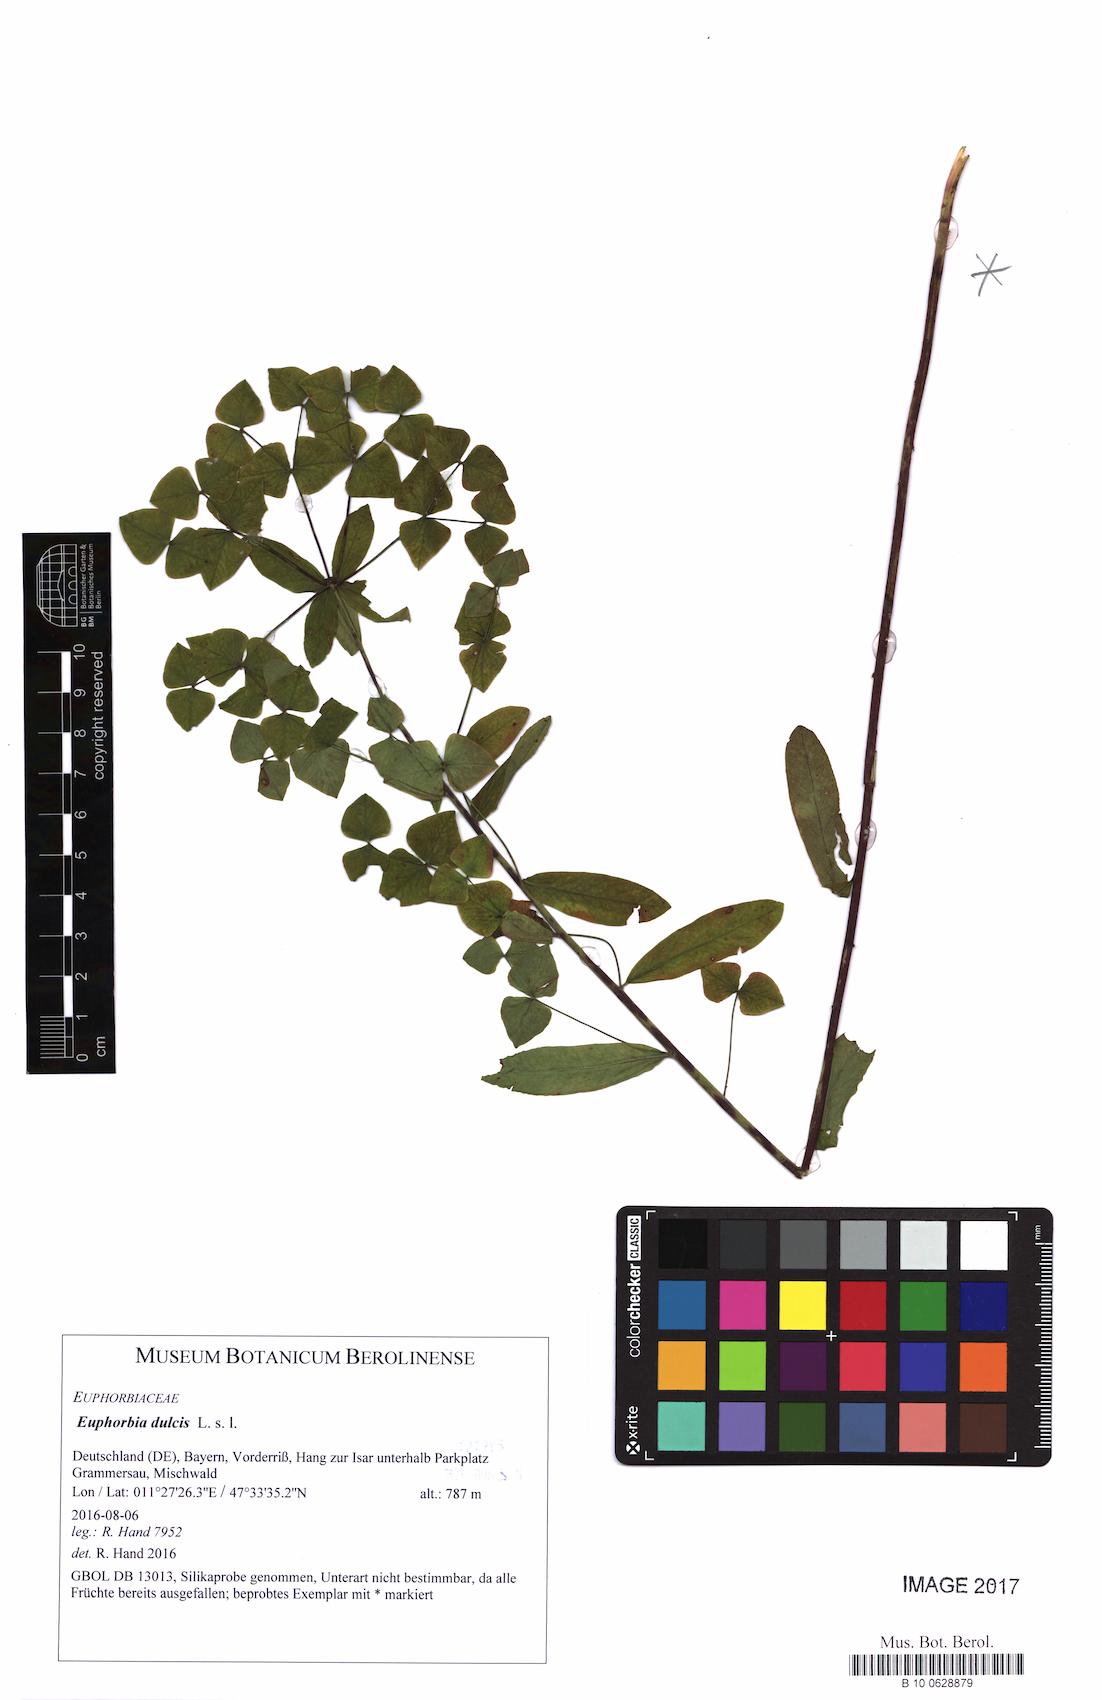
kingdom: Plantae
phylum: Tracheophyta
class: Magnoliopsida
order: Malpighiales
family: Euphorbiaceae
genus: Euphorbia
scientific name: Euphorbia dulcis
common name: Sweet spurge
